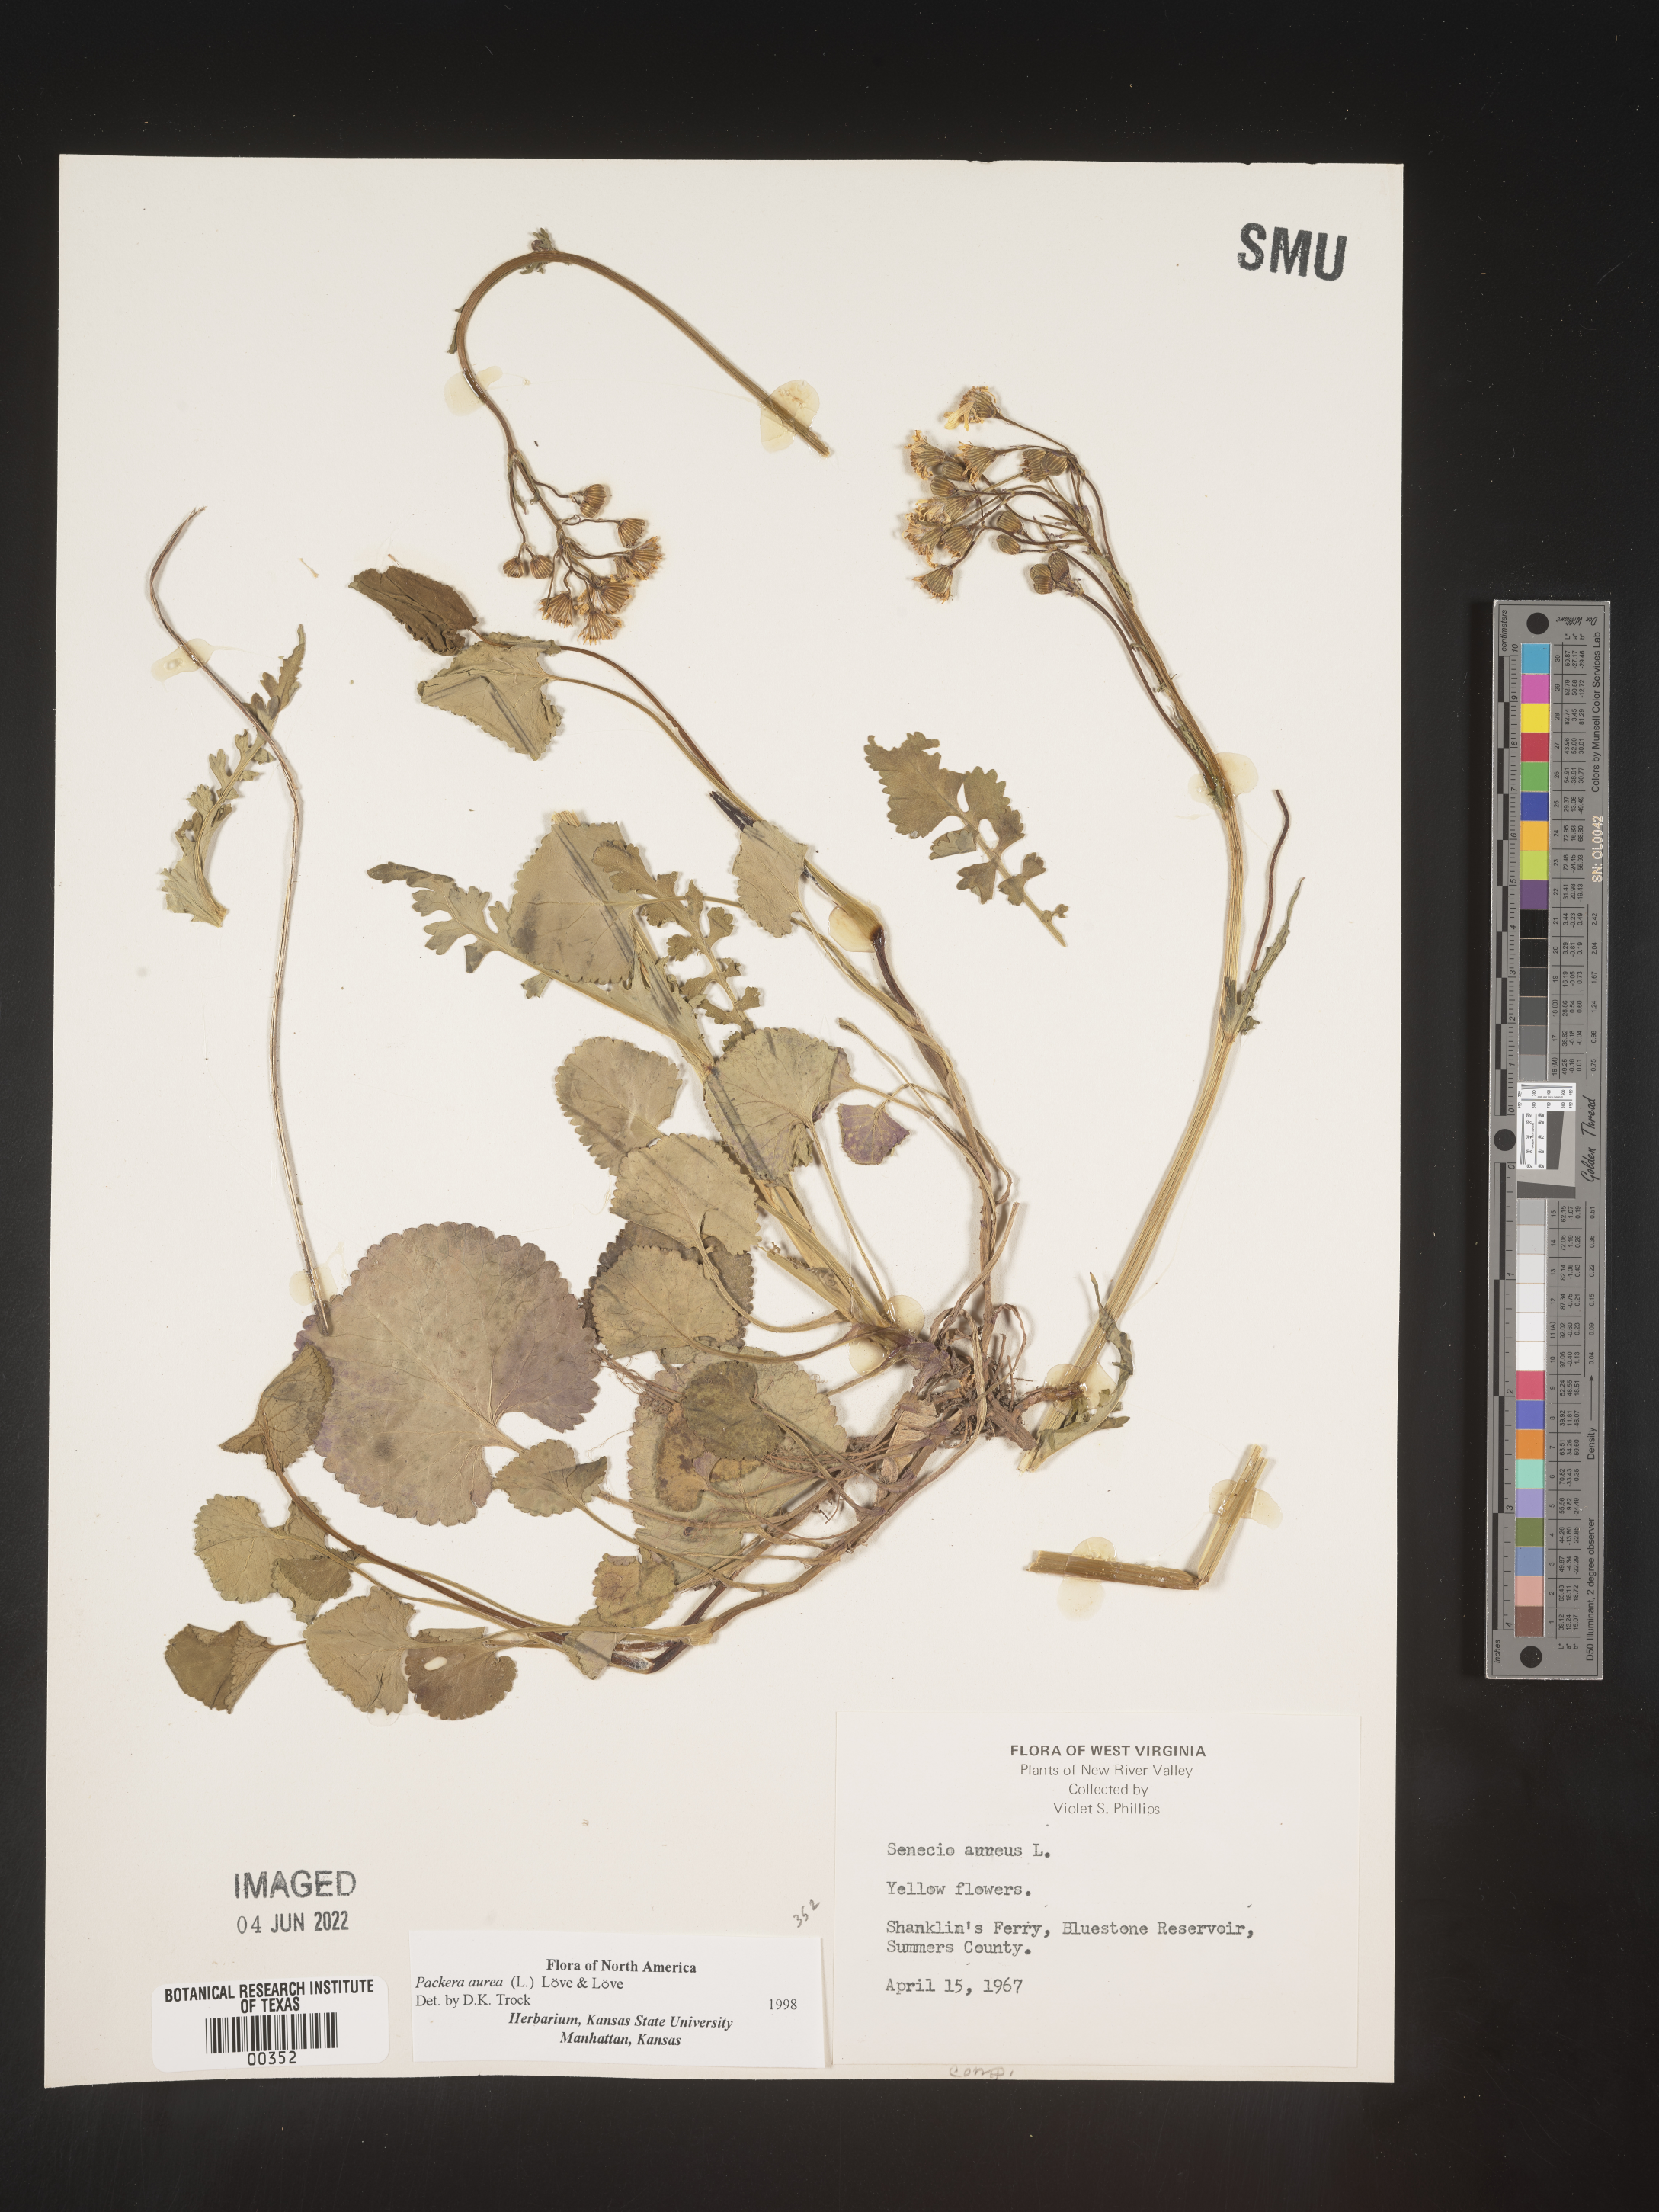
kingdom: Plantae
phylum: Tracheophyta
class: Magnoliopsida
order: Asterales
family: Asteraceae
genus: Packera
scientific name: Packera aurea
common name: Golden groundsel
